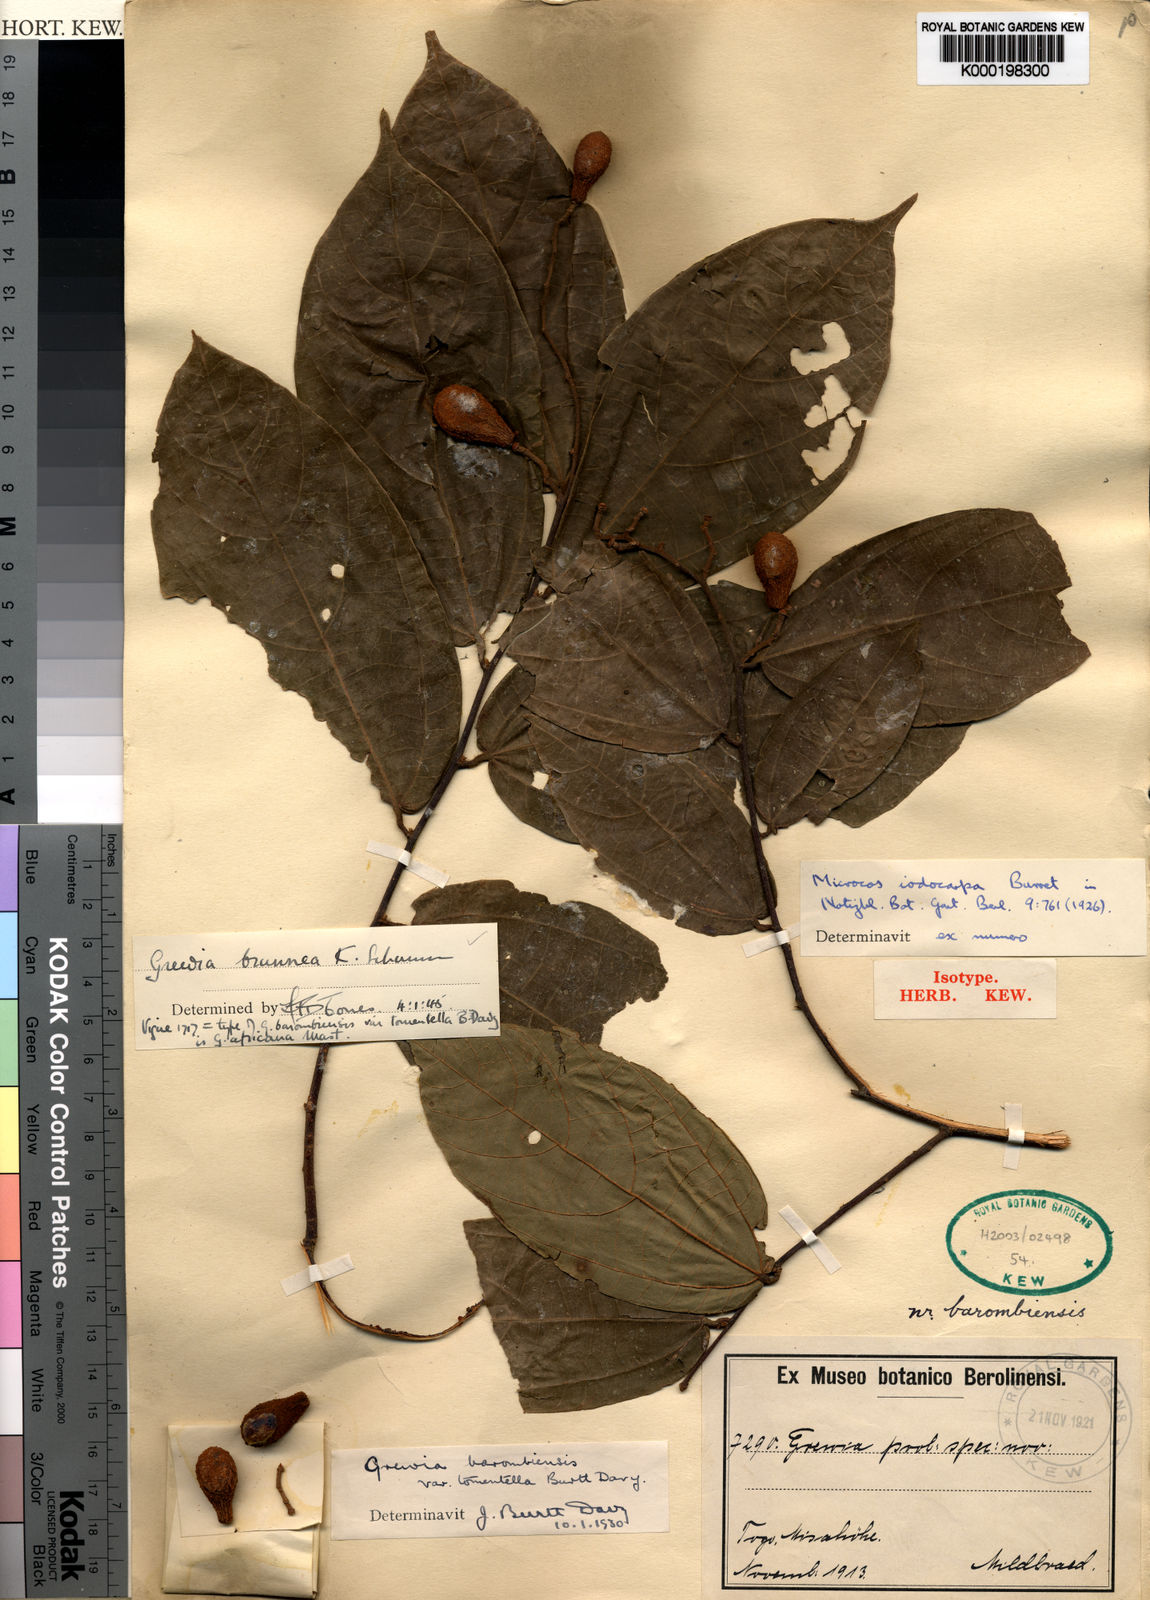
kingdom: Plantae
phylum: Tracheophyta
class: Magnoliopsida
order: Malvales
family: Malvaceae
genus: Microcos
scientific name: Microcos iodocarpa
